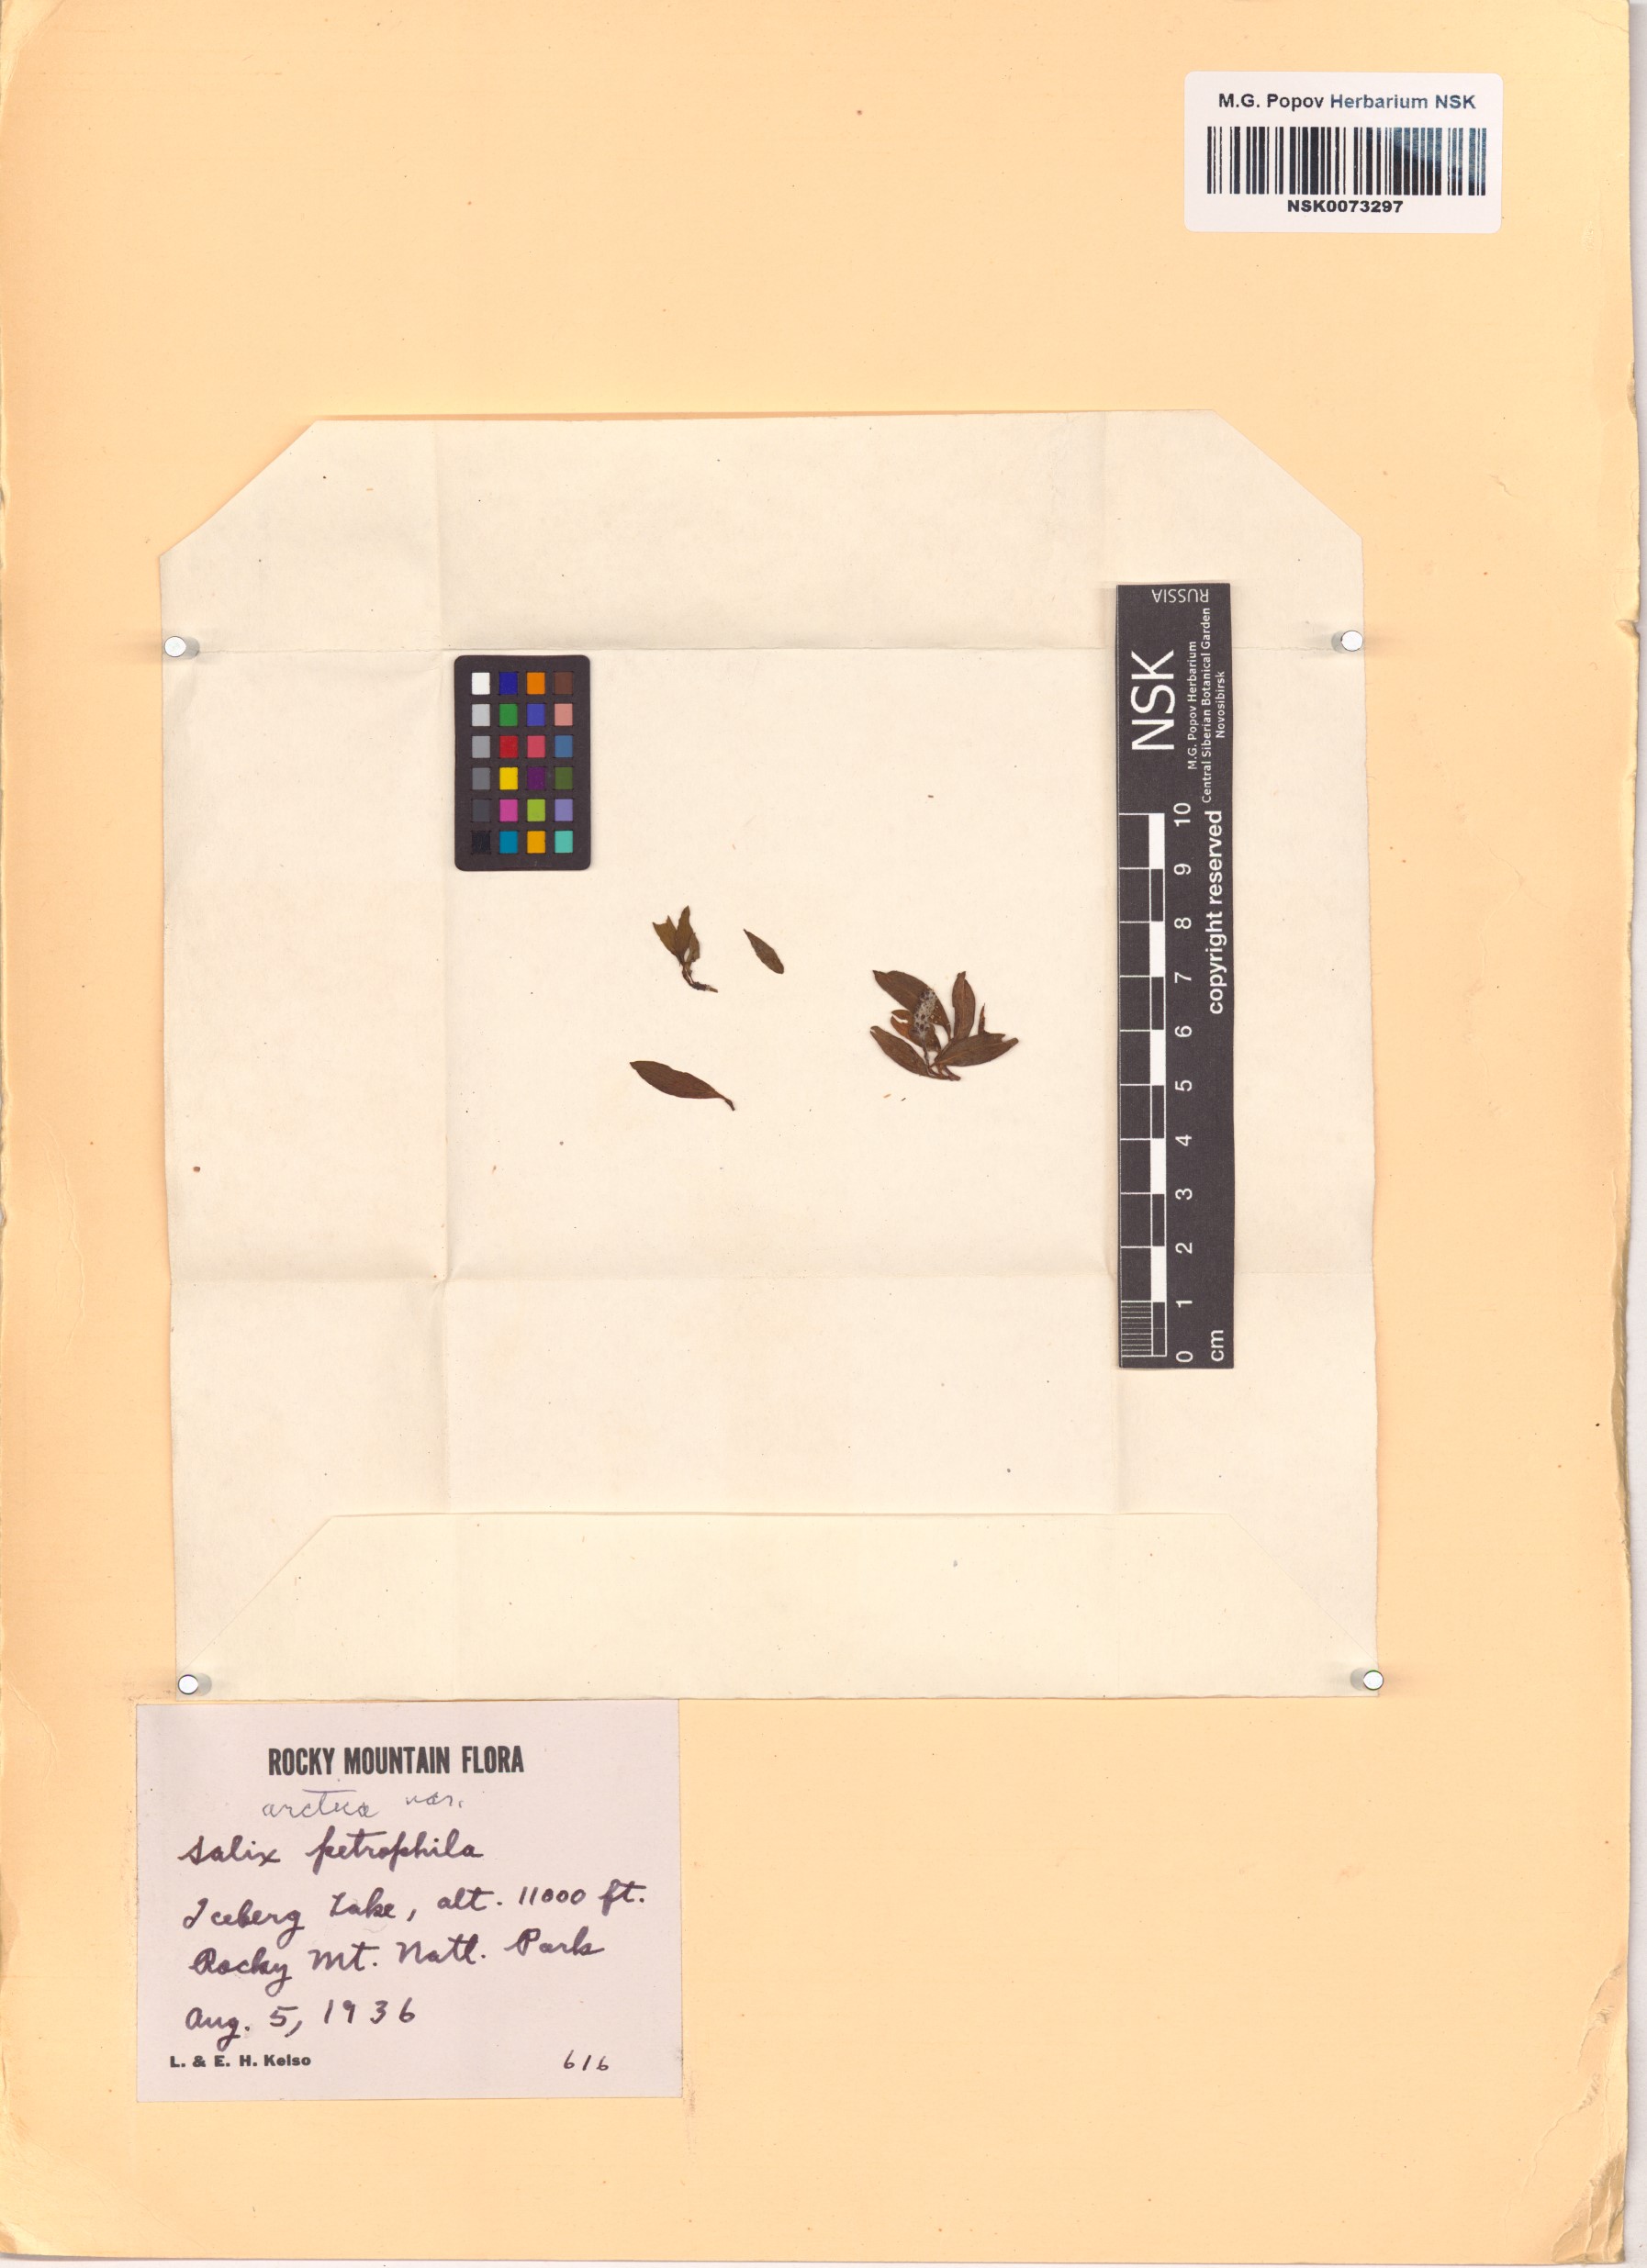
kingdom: Plantae
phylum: Tracheophyta
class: Magnoliopsida
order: Malpighiales
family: Salicaceae
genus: Salix
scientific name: Salix petrophila
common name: Rocky mountain willow
